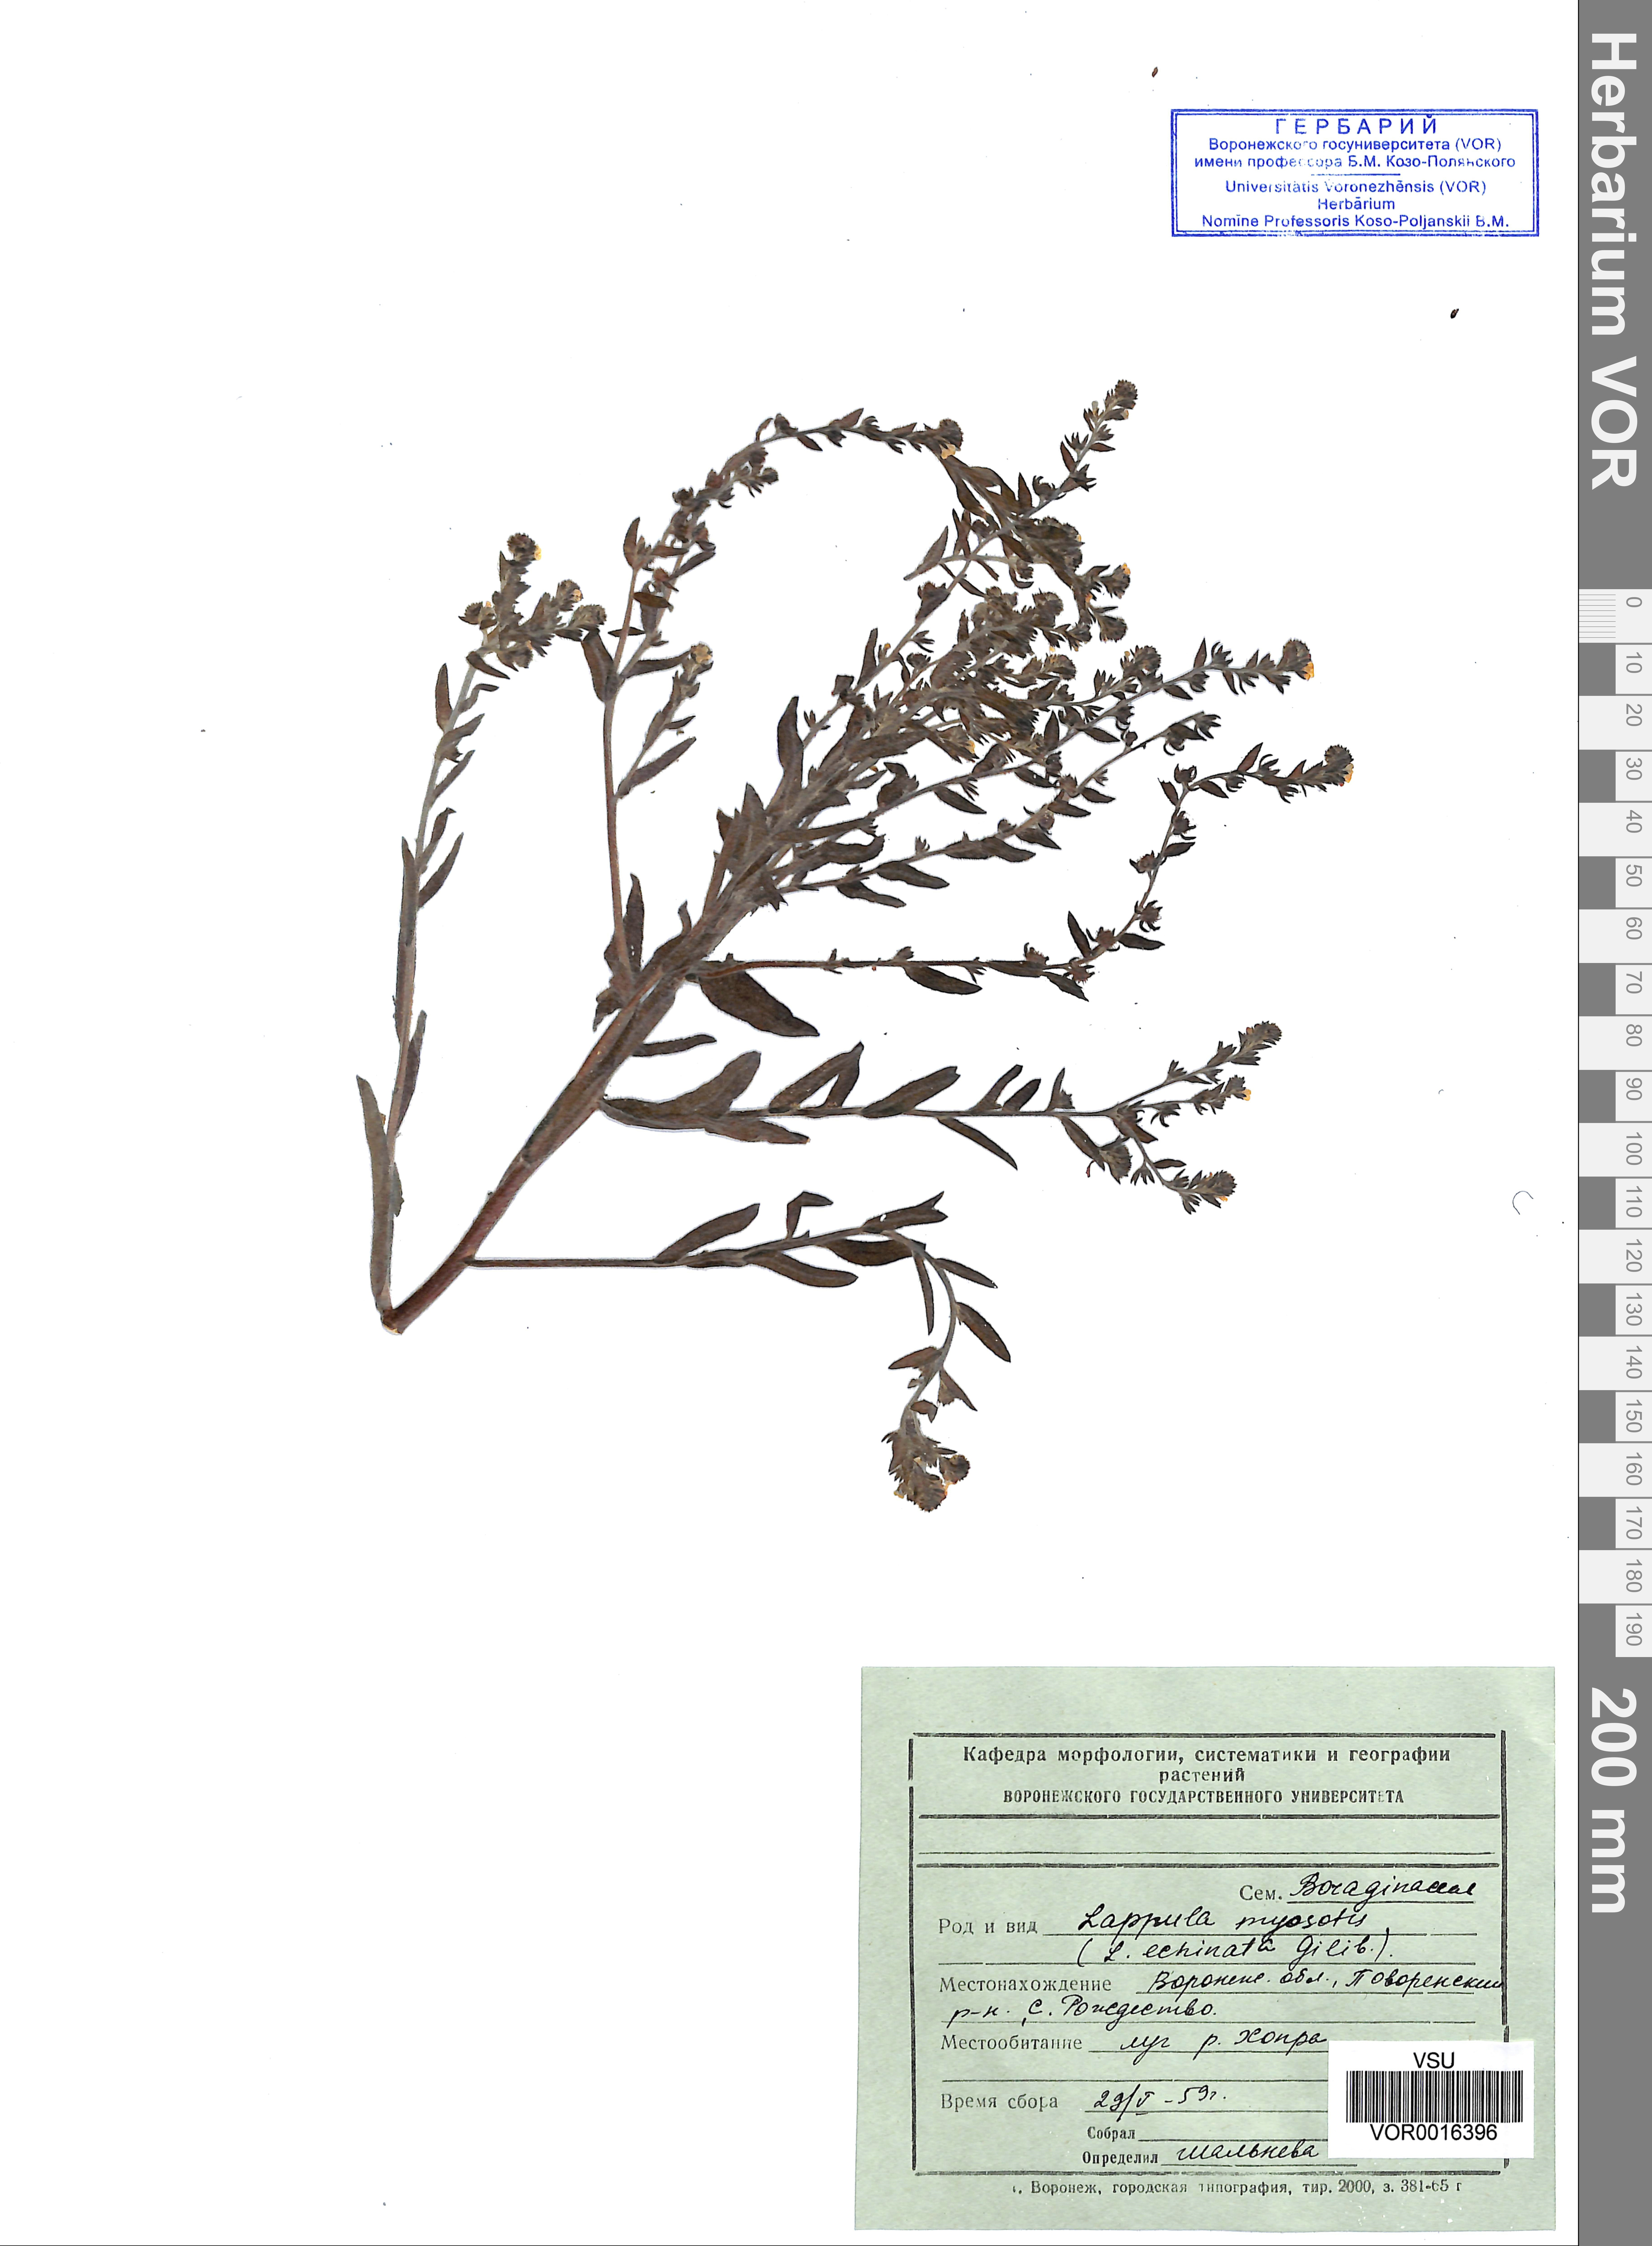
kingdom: Plantae
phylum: Tracheophyta
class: Magnoliopsida
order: Boraginales
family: Boraginaceae
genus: Lappula
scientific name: Lappula squarrosa
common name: European stickseed
